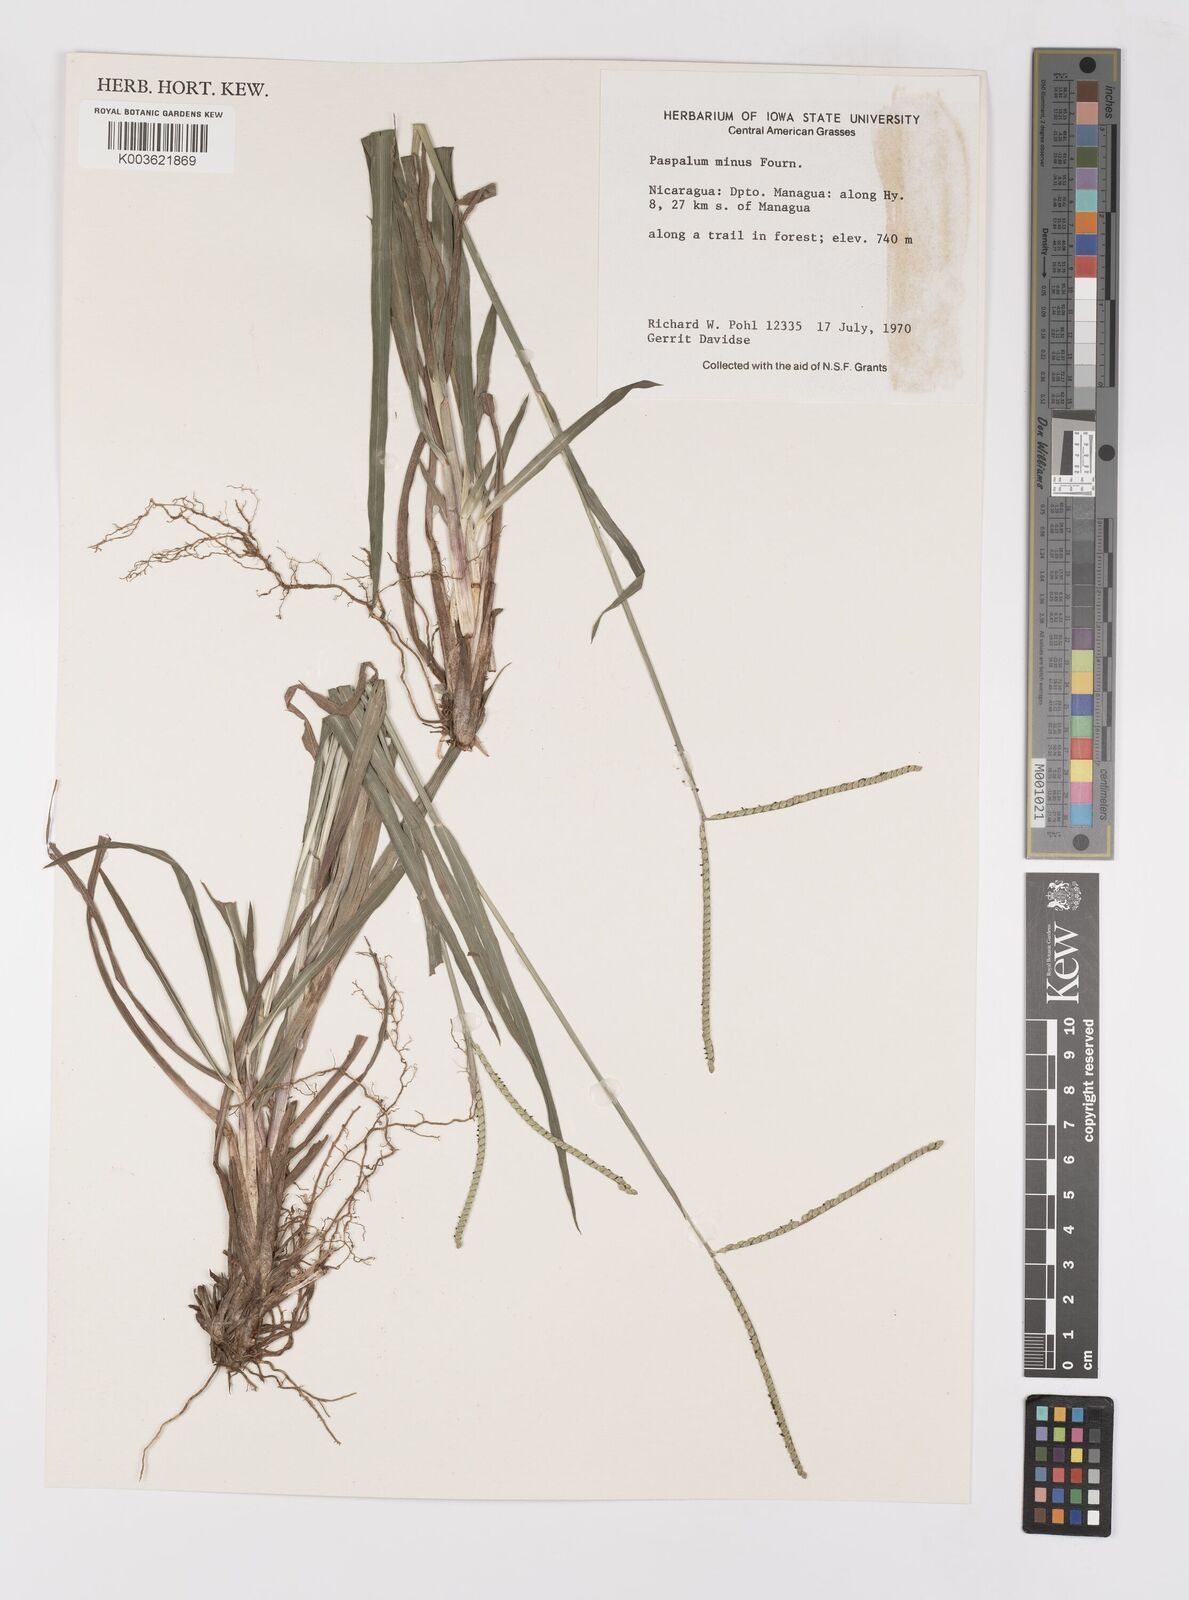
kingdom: Plantae
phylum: Tracheophyta
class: Liliopsida
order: Poales
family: Poaceae
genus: Paspalum
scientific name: Paspalum minus
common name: Matted paspalum
